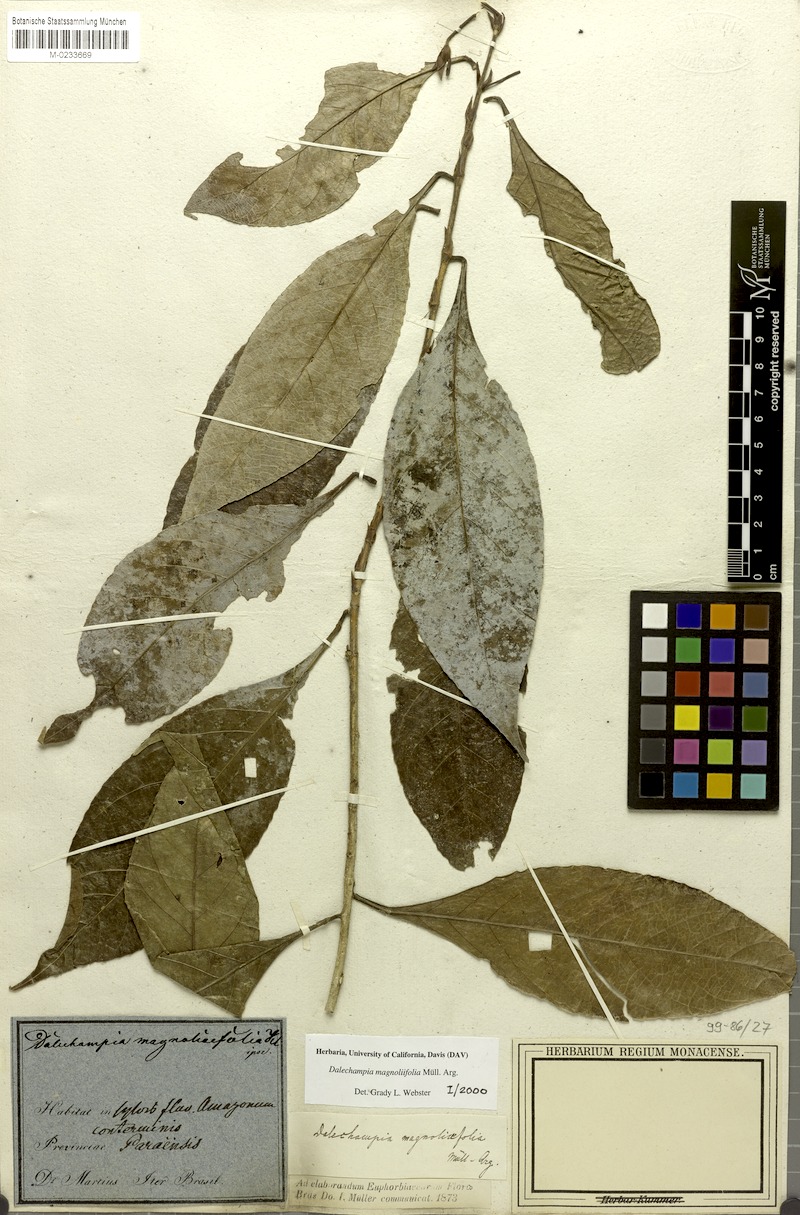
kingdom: Plantae
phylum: Tracheophyta
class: Magnoliopsida
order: Malpighiales
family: Euphorbiaceae
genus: Dalechampia
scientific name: Dalechampia magnoliifolia
